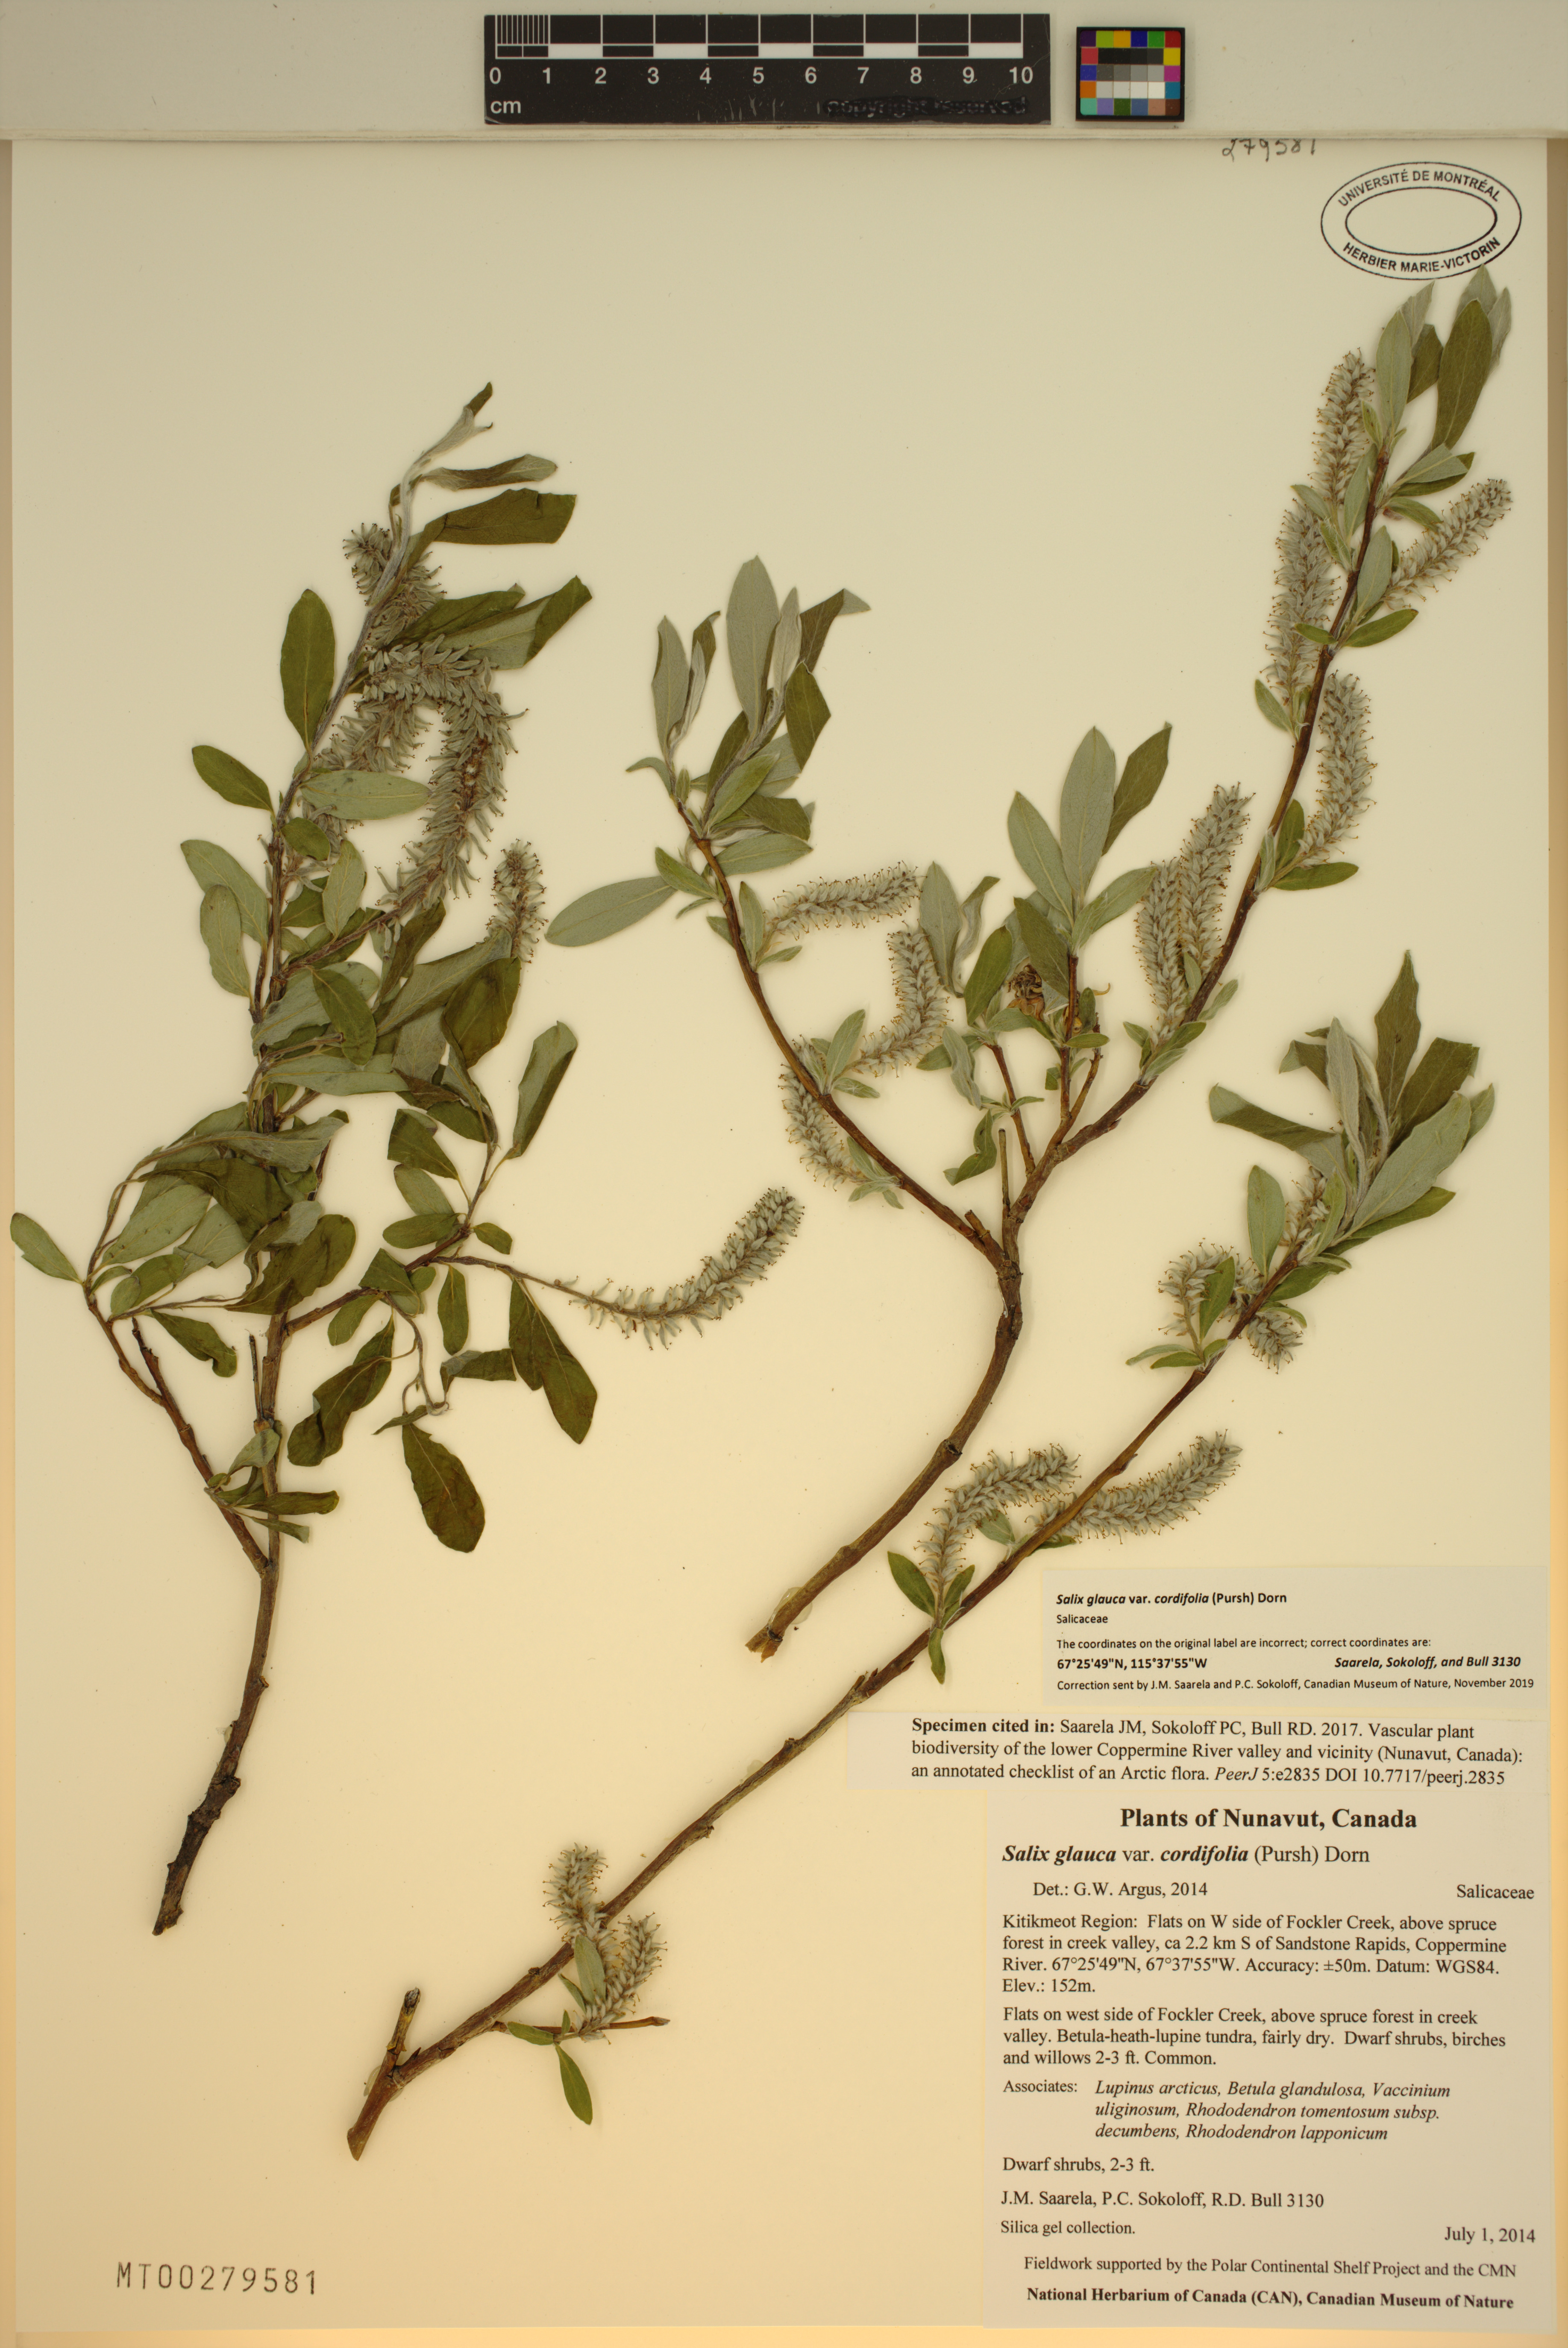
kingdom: Plantae
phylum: Tracheophyta
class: Magnoliopsida
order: Malpighiales
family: Salicaceae
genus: Salix
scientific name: Salix glauca
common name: Glaucous willow
